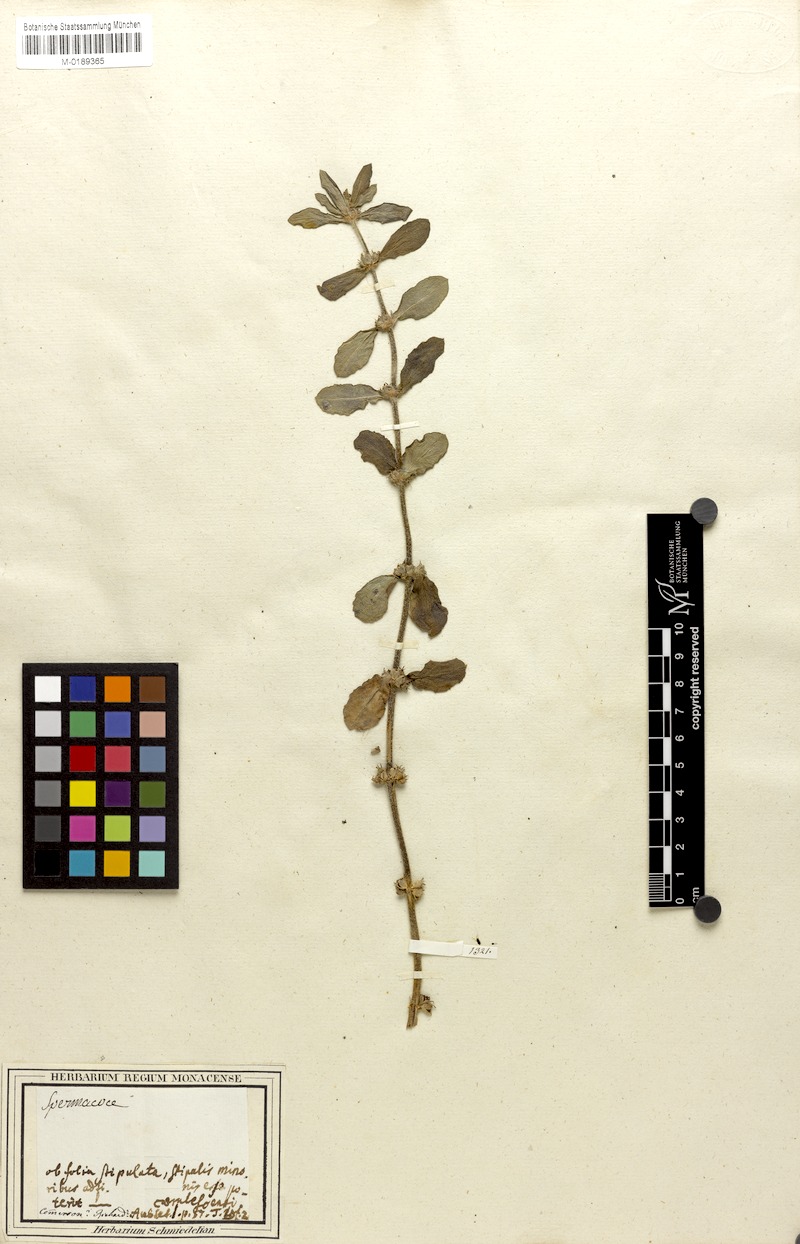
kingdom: Plantae
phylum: Tracheophyta
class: Magnoliopsida
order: Gentianales
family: Rubiaceae
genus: Spermacoce
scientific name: Spermacoce hispida
